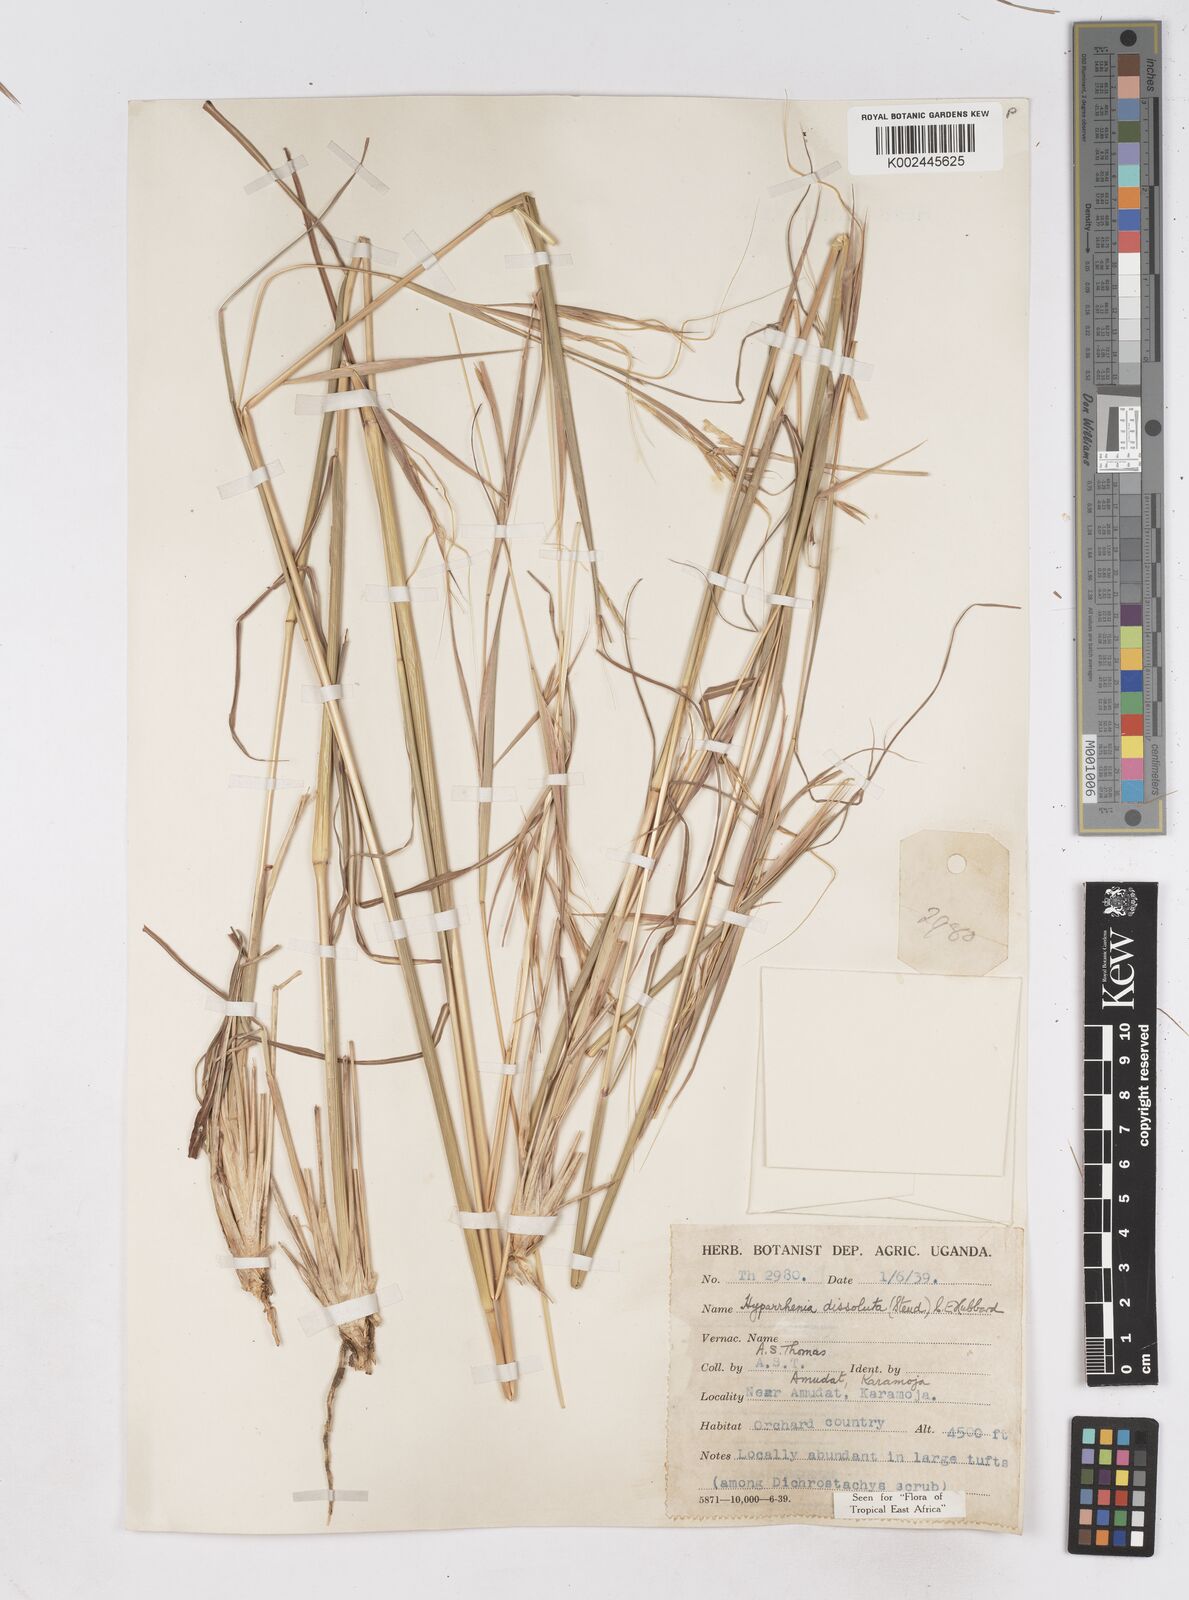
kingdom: Plantae
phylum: Tracheophyta
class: Liliopsida
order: Poales
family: Poaceae
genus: Hyperthelia
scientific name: Hyperthelia dissoluta
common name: Yellow thatching grass
